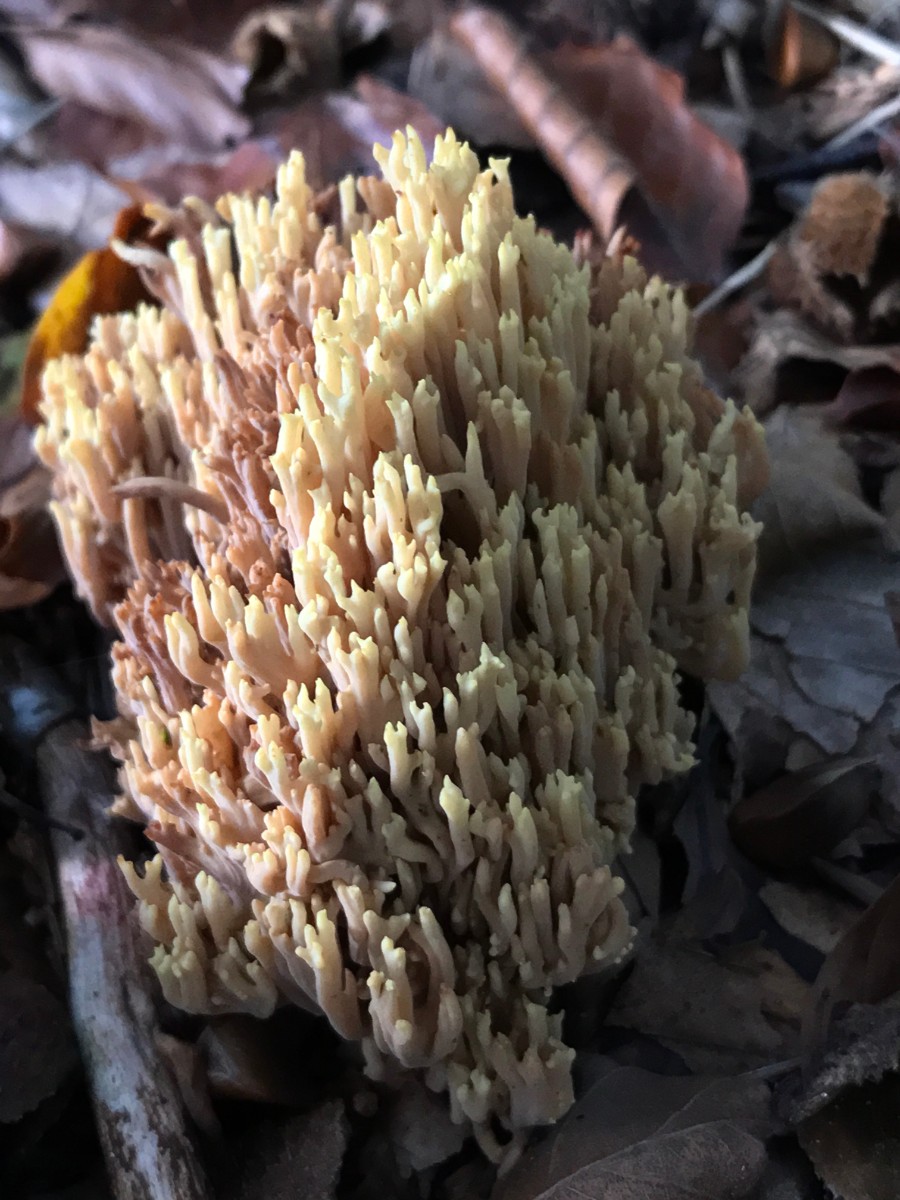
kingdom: Fungi
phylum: Basidiomycota
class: Agaricomycetes
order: Gomphales
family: Gomphaceae
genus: Ramaria
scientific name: Ramaria stricta
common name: rank koralsvamp
